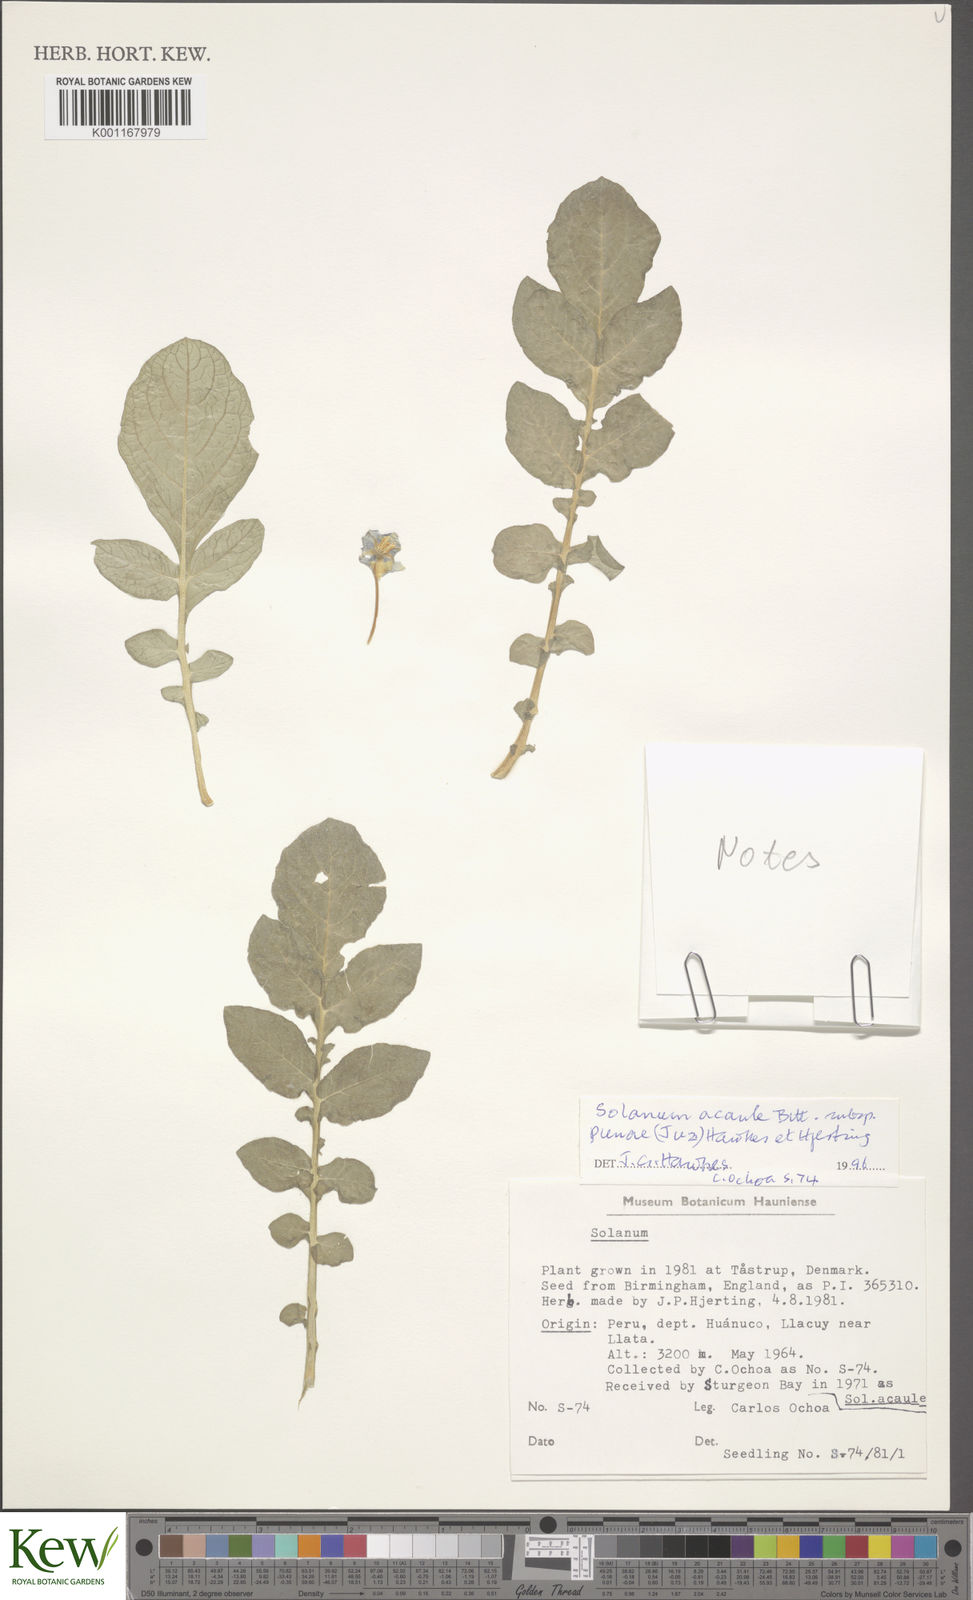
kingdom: Plantae
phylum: Tracheophyta
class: Magnoliopsida
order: Solanales
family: Solanaceae
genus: Solanum
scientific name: Solanum acaule
